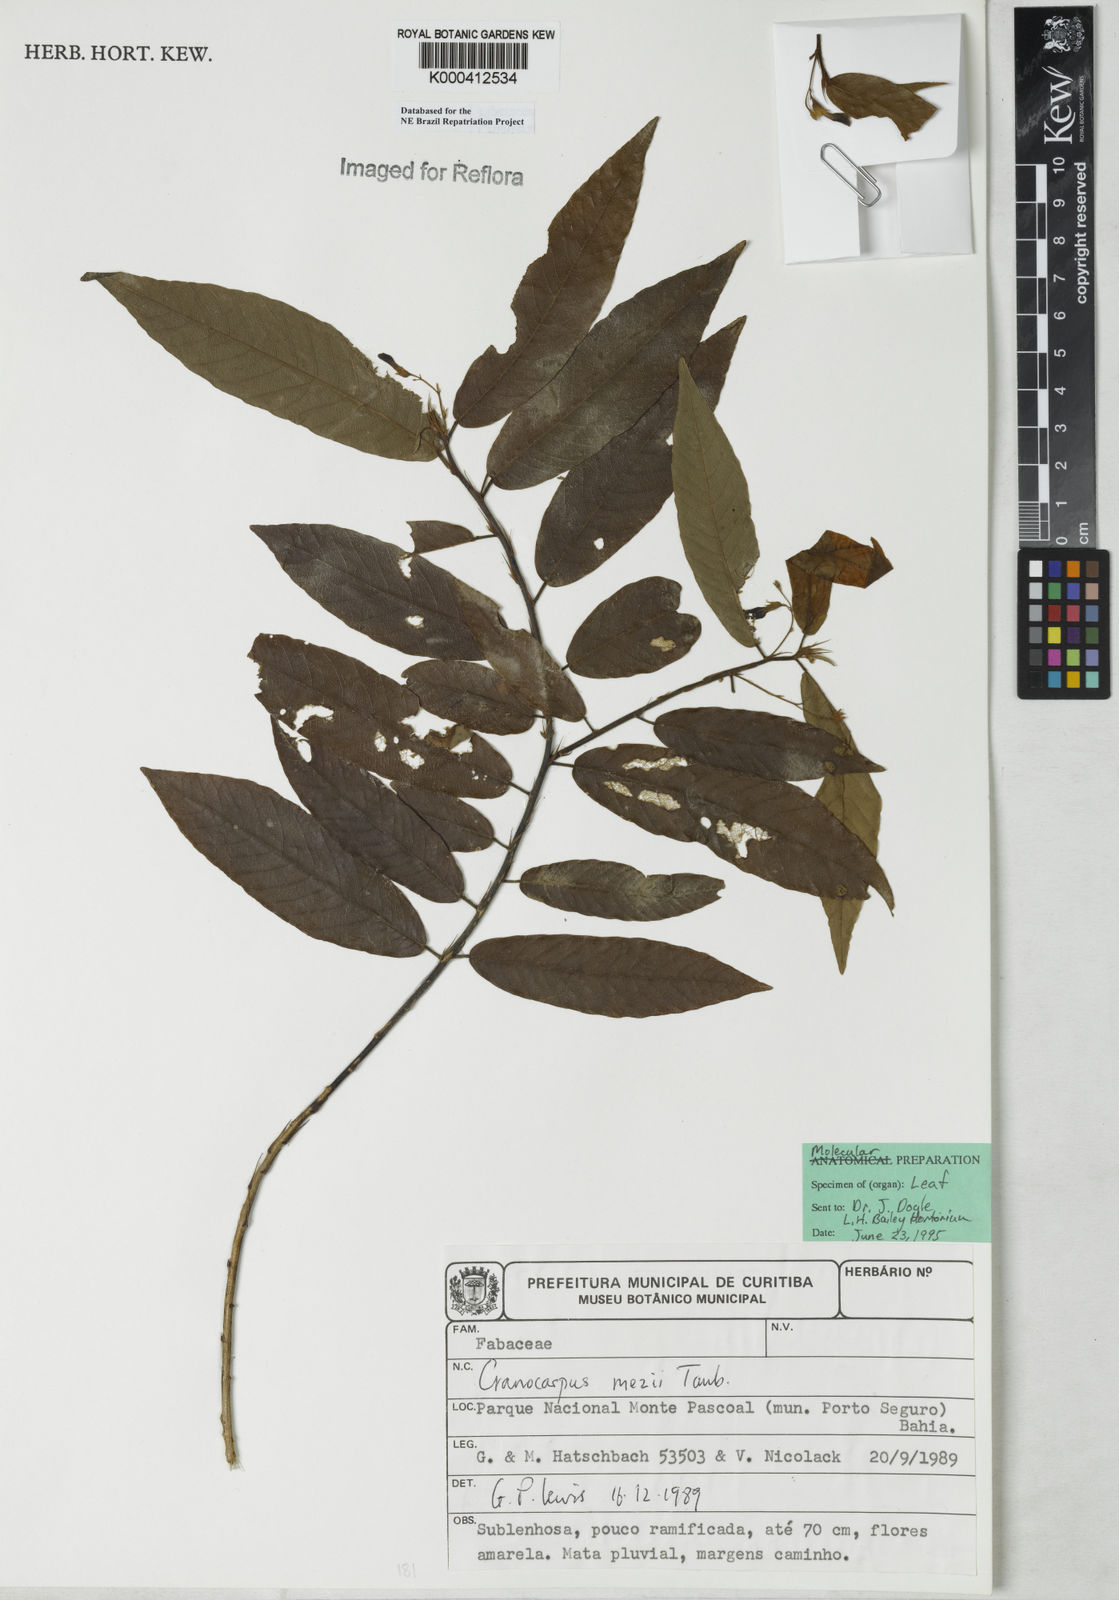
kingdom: Plantae
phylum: Tracheophyta
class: Magnoliopsida
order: Fabales
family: Fabaceae
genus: Cranocarpus
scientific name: Cranocarpus mezii
